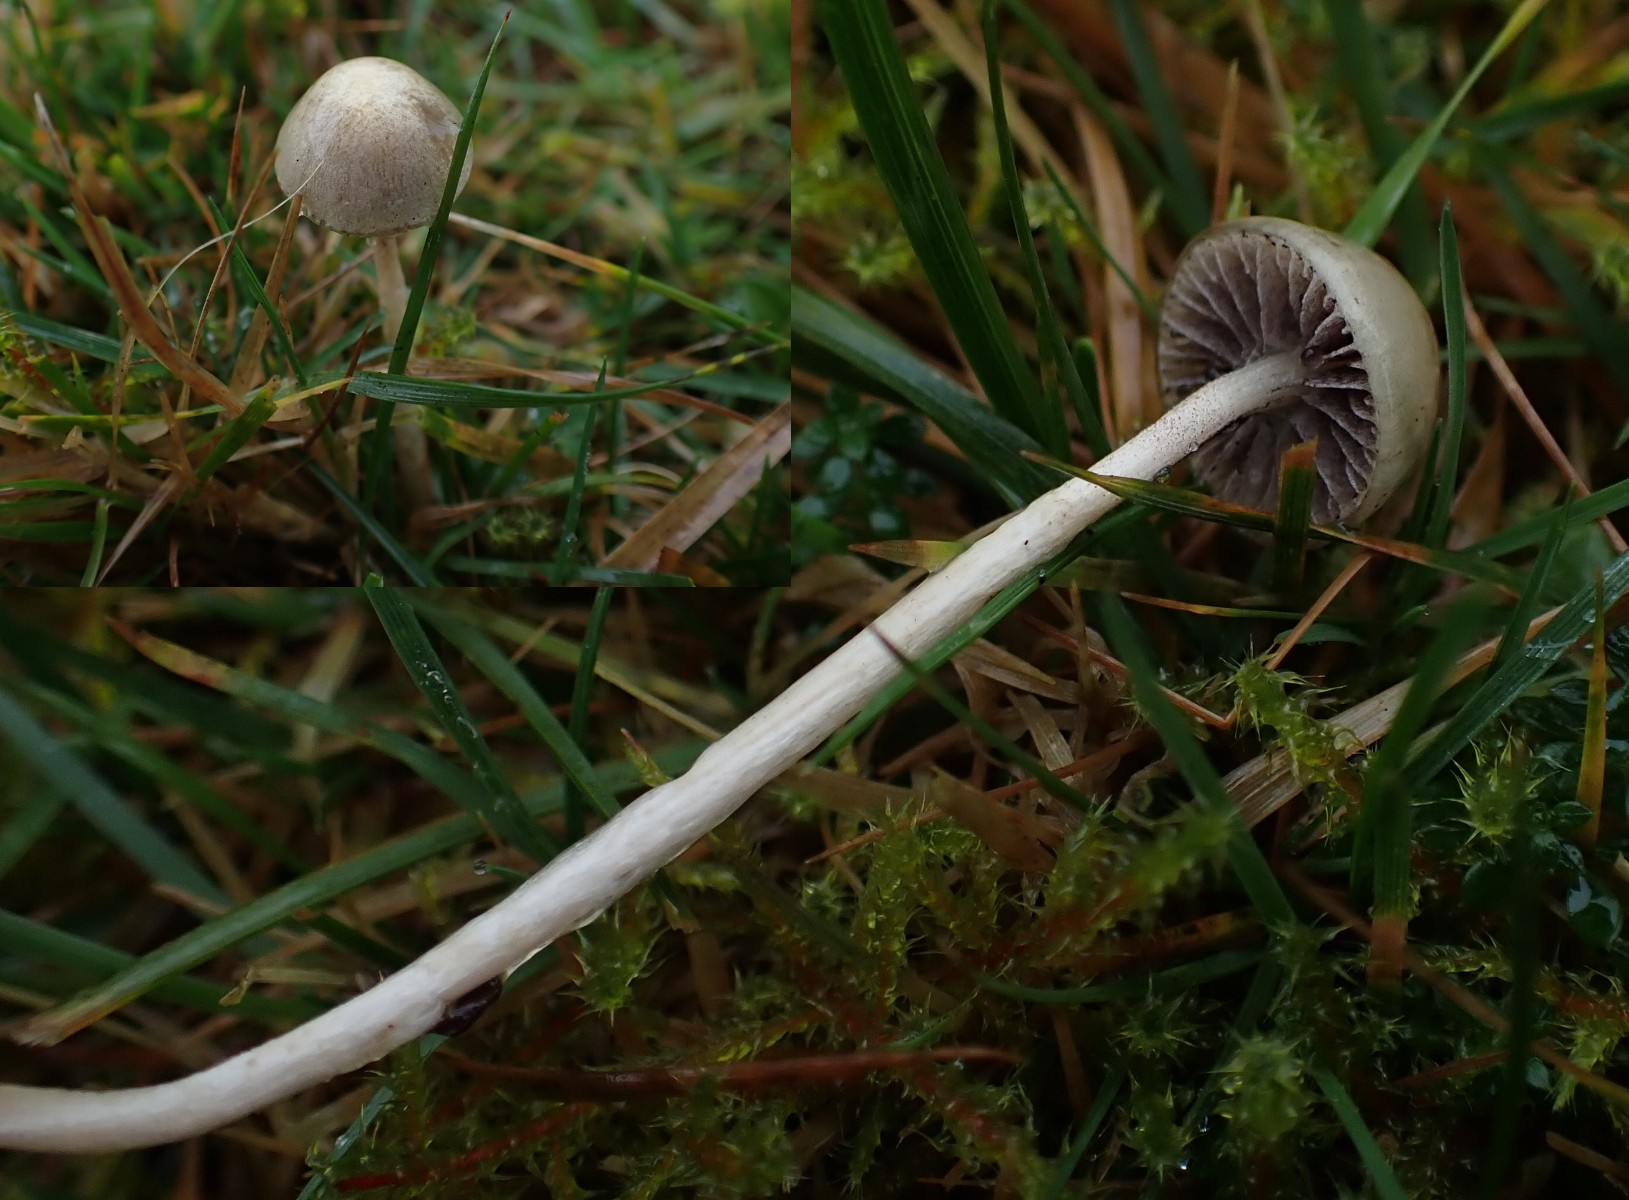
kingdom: Fungi
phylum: Basidiomycota
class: Agaricomycetes
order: Agaricales
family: Strophariaceae
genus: Protostropharia
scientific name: Protostropharia semiglobata
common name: halvkugleformet bredblad
